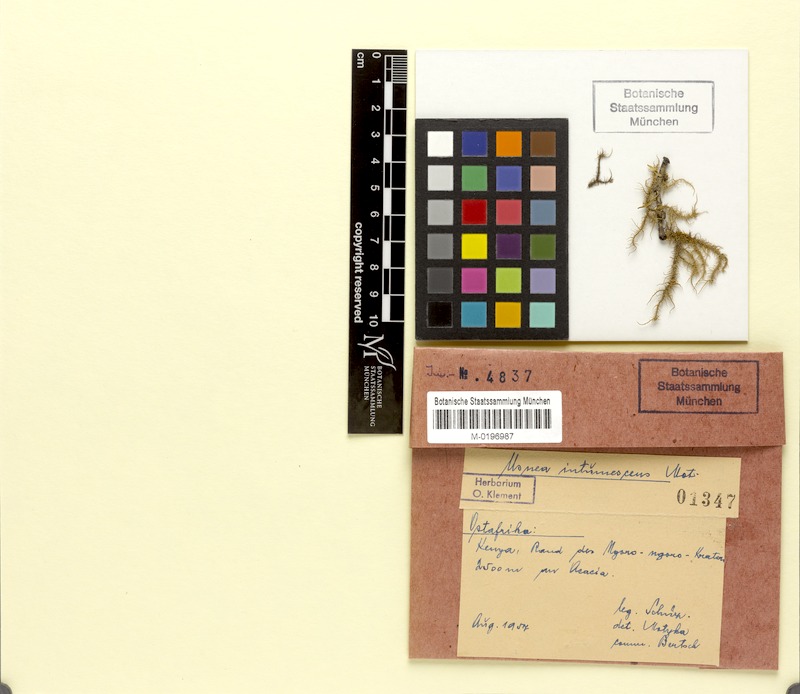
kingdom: Fungi
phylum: Ascomycota
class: Lecanoromycetes
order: Lecanorales
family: Parmeliaceae
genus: Usnea
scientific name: Usnea intumescens
